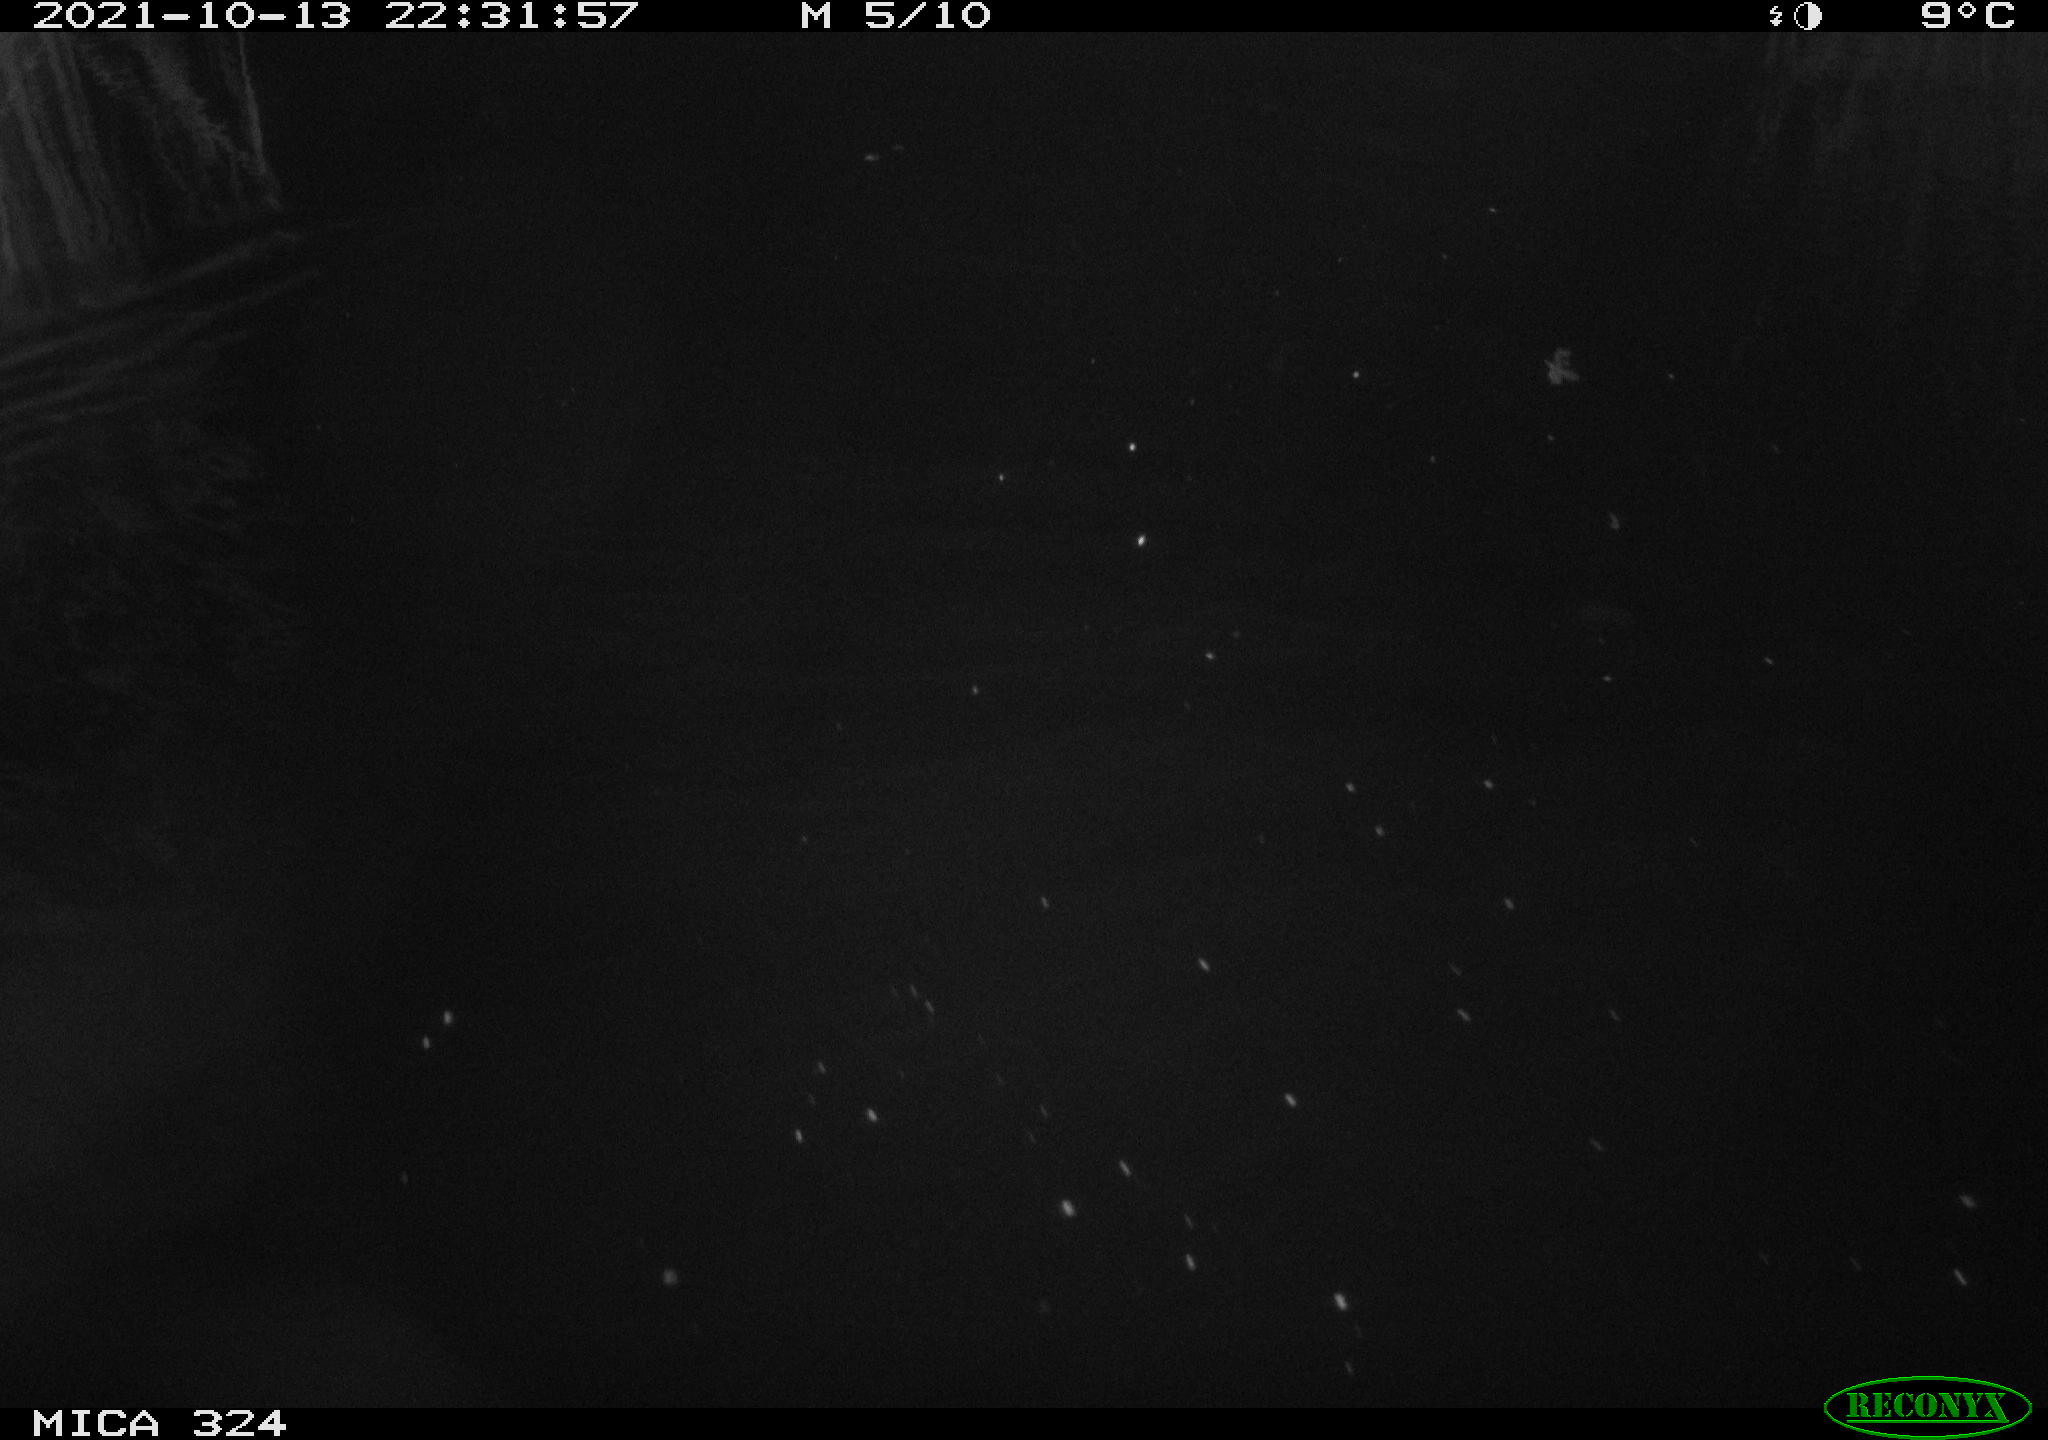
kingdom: Animalia
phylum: Chordata
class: Mammalia
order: Rodentia
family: Cricetidae
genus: Ondatra
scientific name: Ondatra zibethicus
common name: Muskrat
